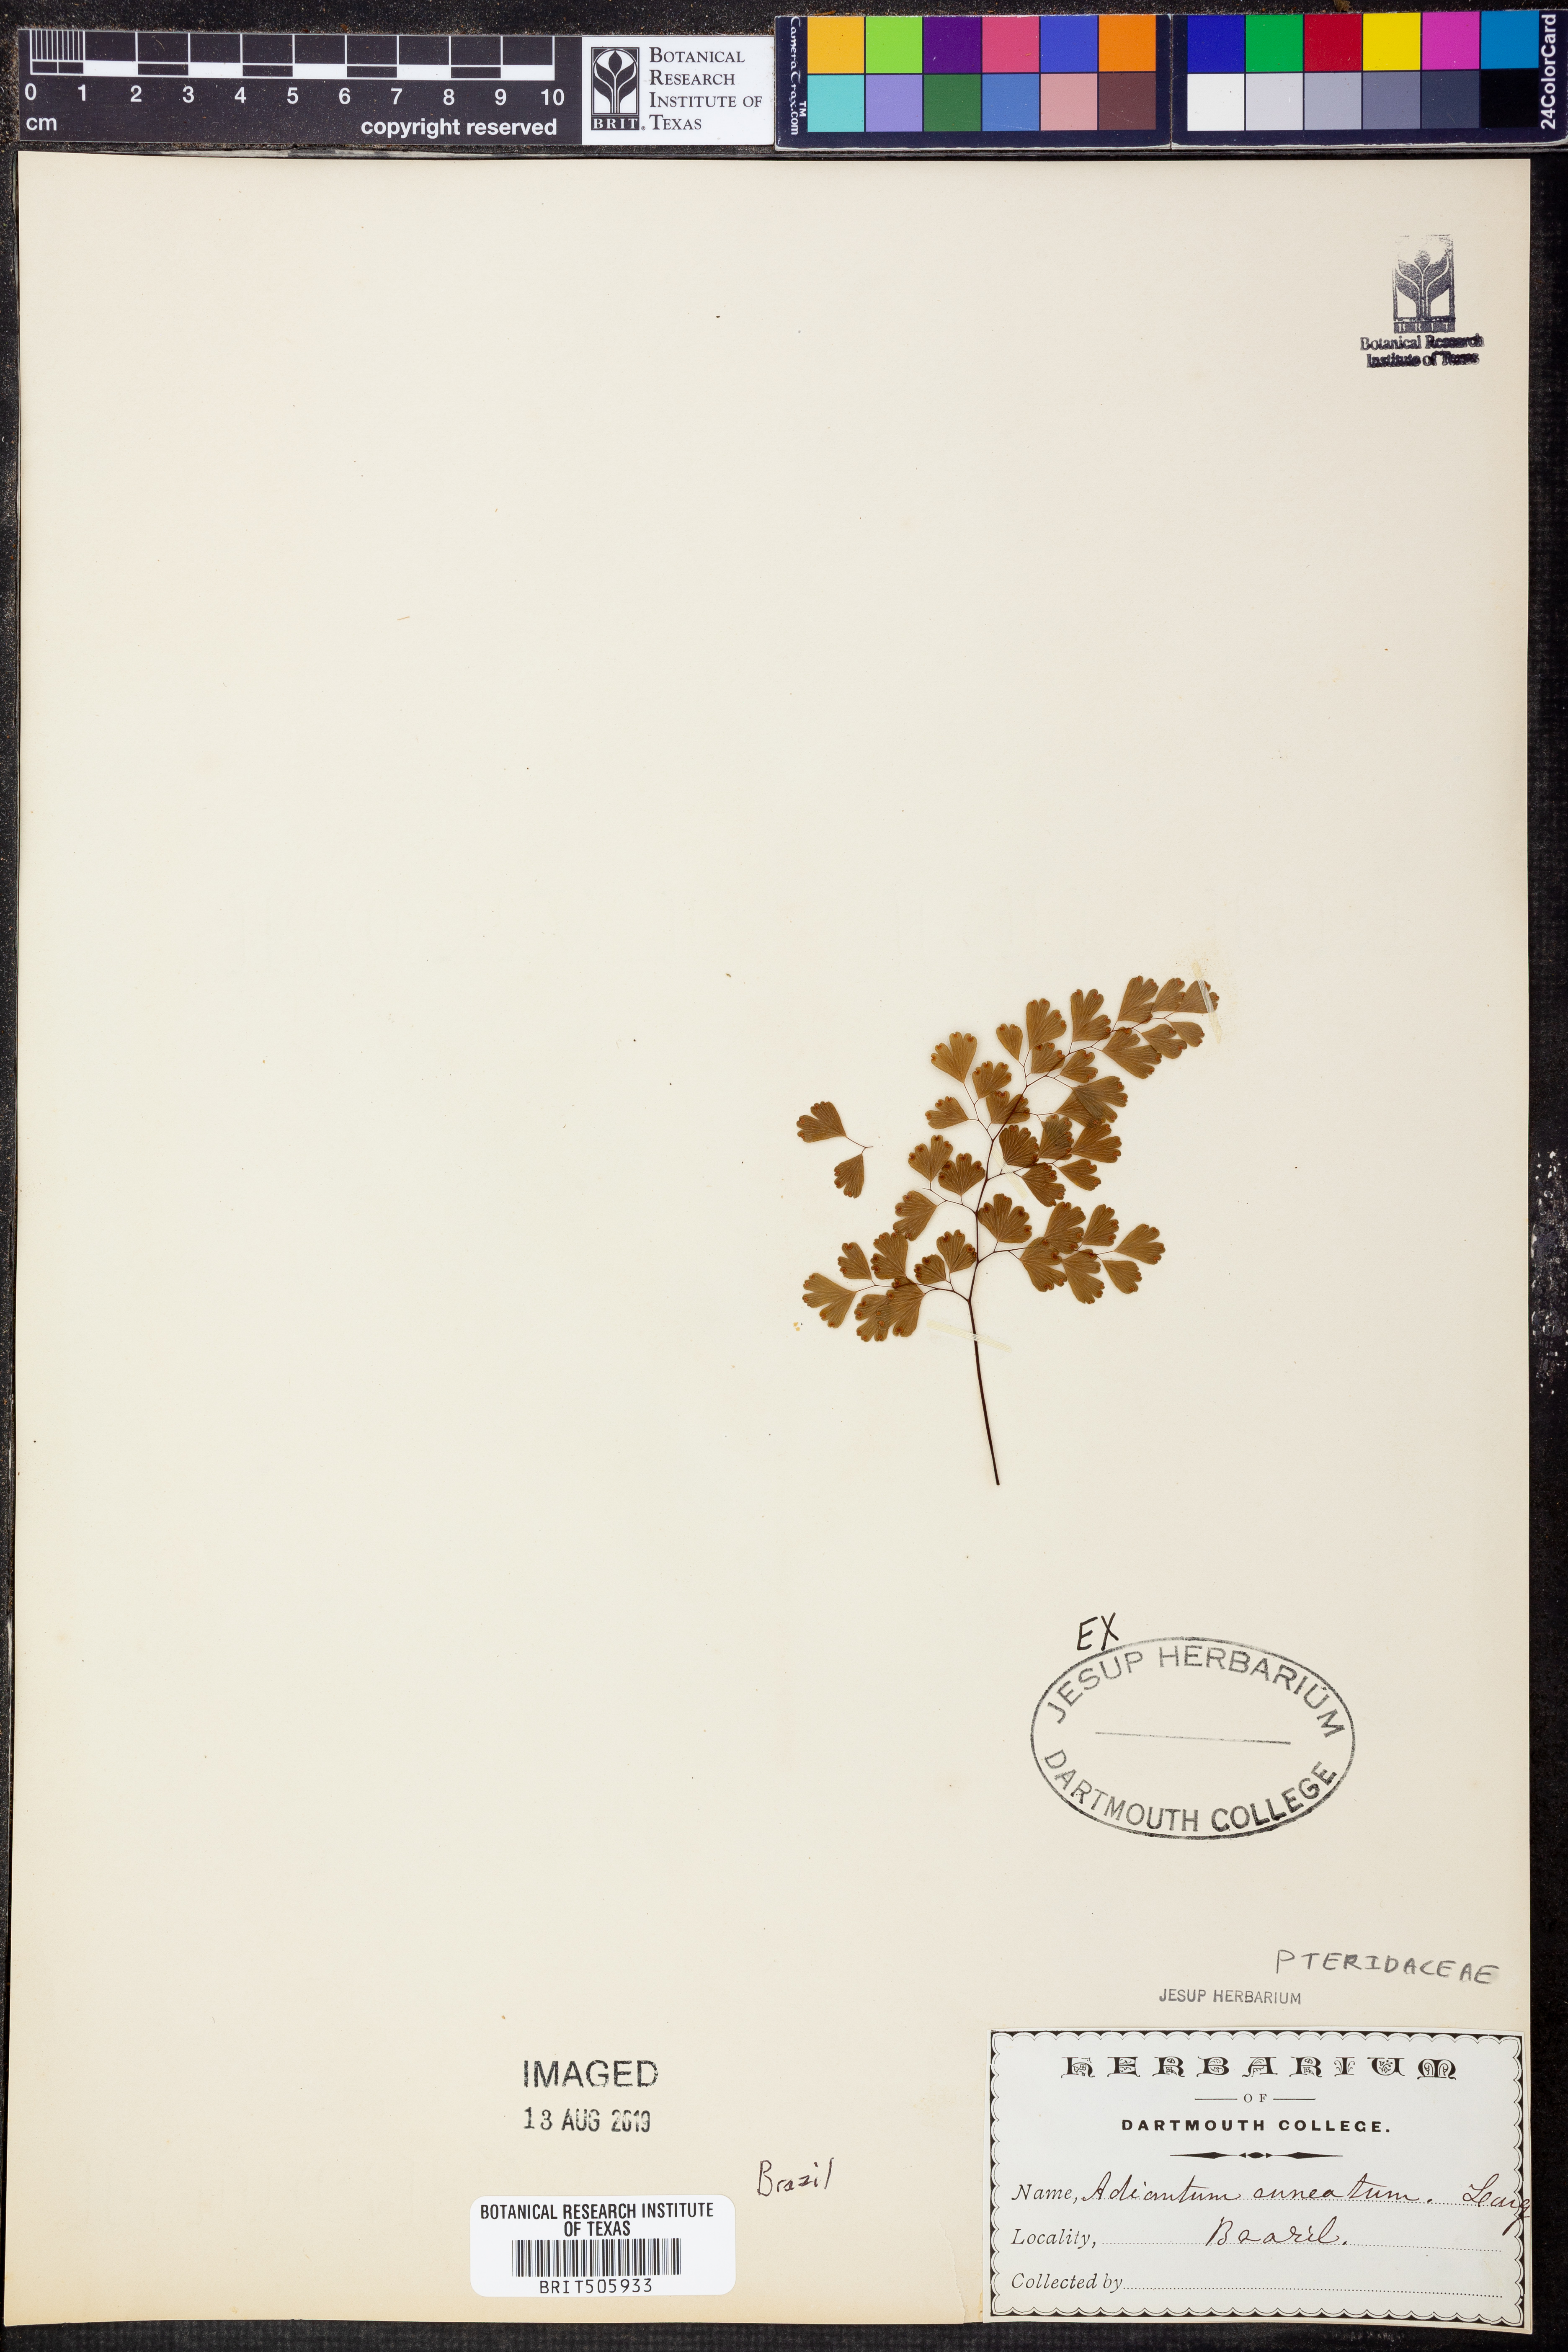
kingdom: Plantae
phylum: Tracheophyta
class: Polypodiopsida
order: Polypodiales
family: Pteridaceae
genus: Adiantum
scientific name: Adiantum raddianum
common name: Delta maidenhair fern
